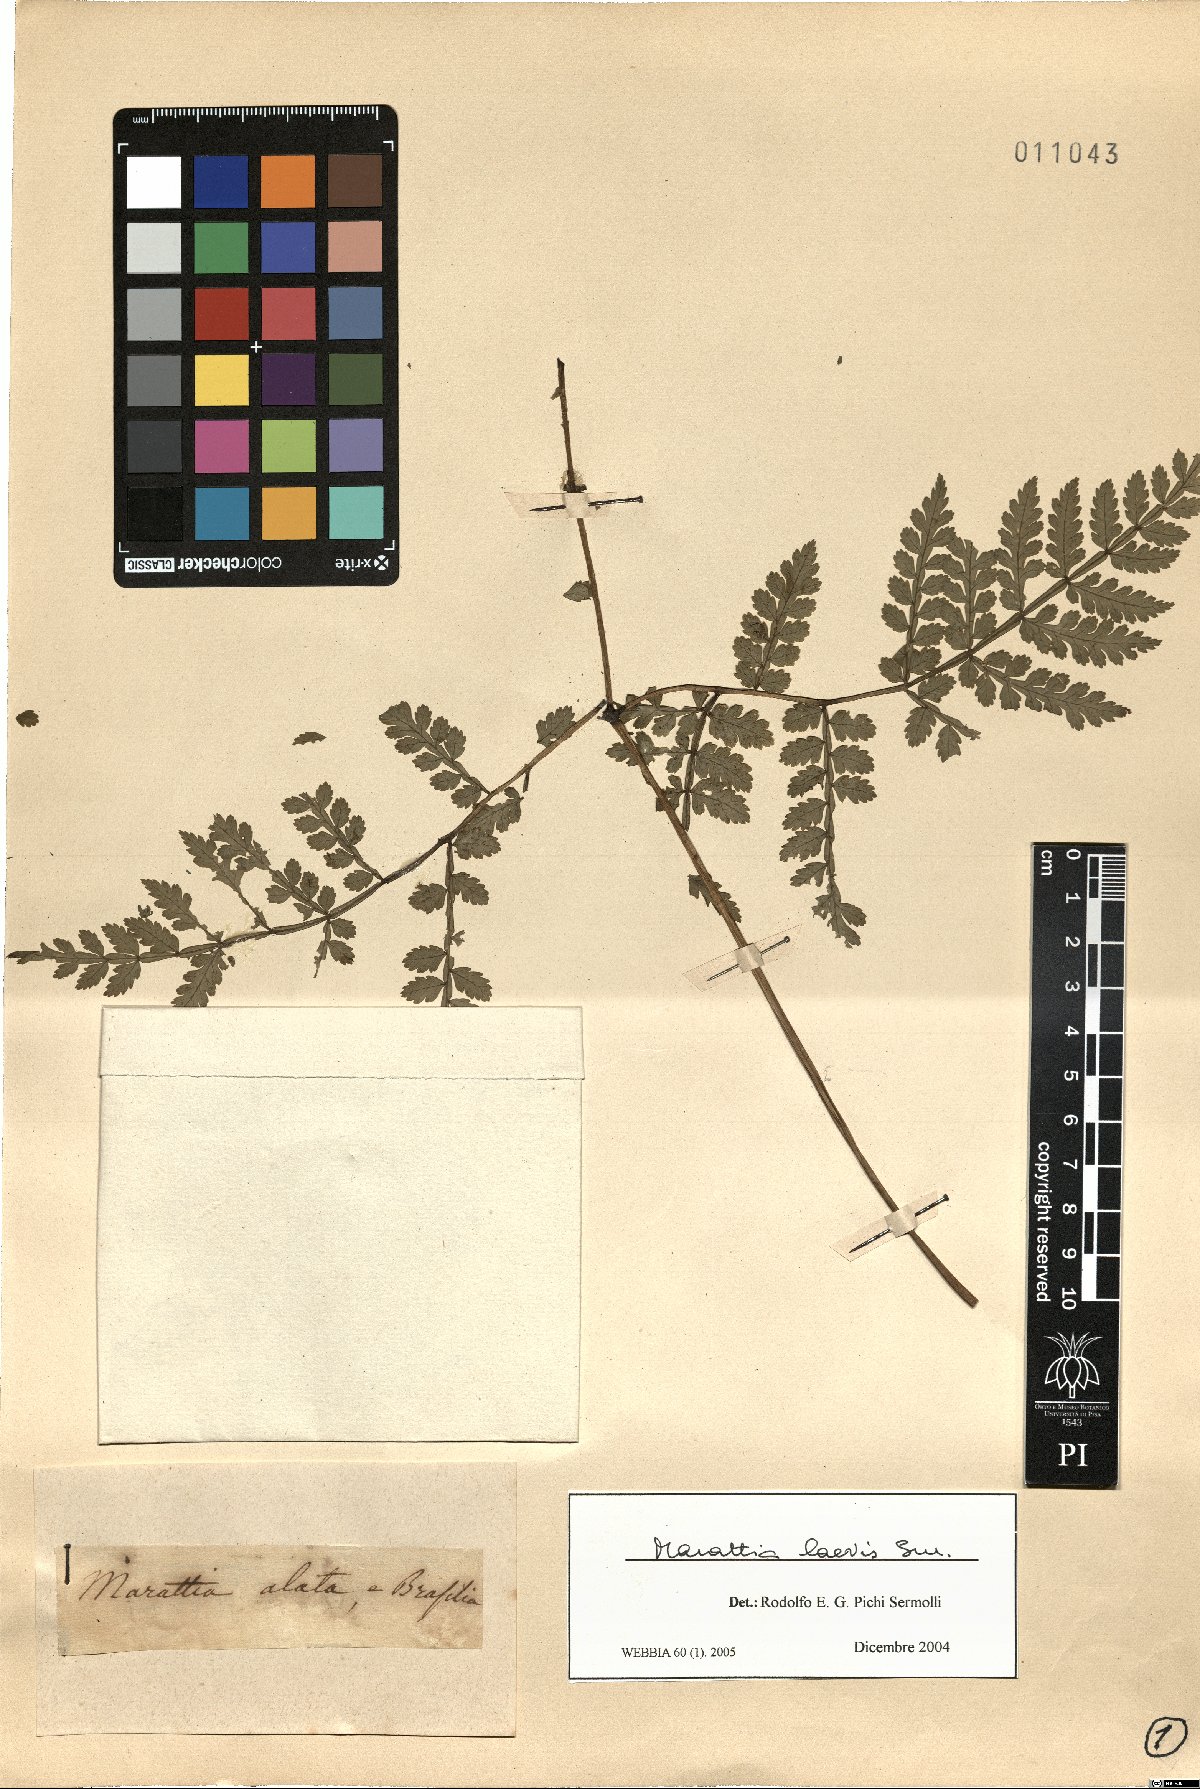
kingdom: Plantae
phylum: Tracheophyta
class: Polypodiopsida
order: Marattiales
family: Marattiaceae
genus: Eupodium
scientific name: Eupodium laeve
